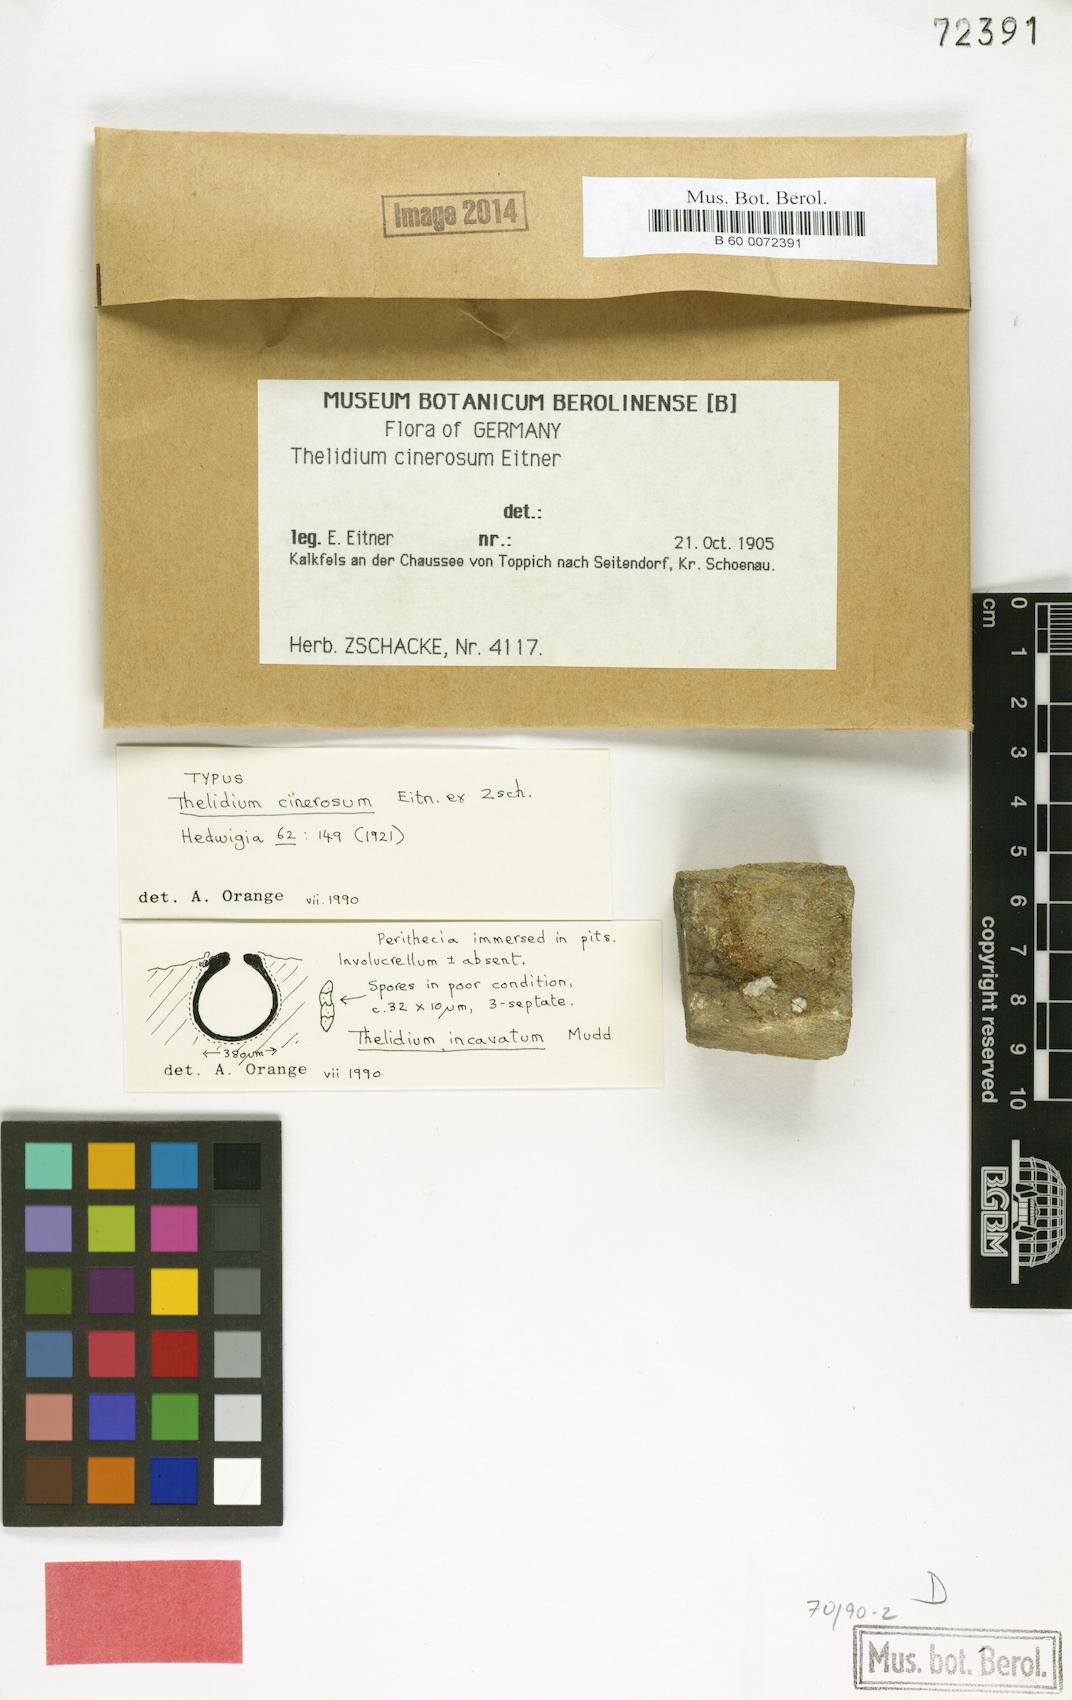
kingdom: Fungi
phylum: Ascomycota
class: Eurotiomycetes
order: Verrucariales
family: Verrucariaceae
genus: Thelidium
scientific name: Thelidium gisleri
